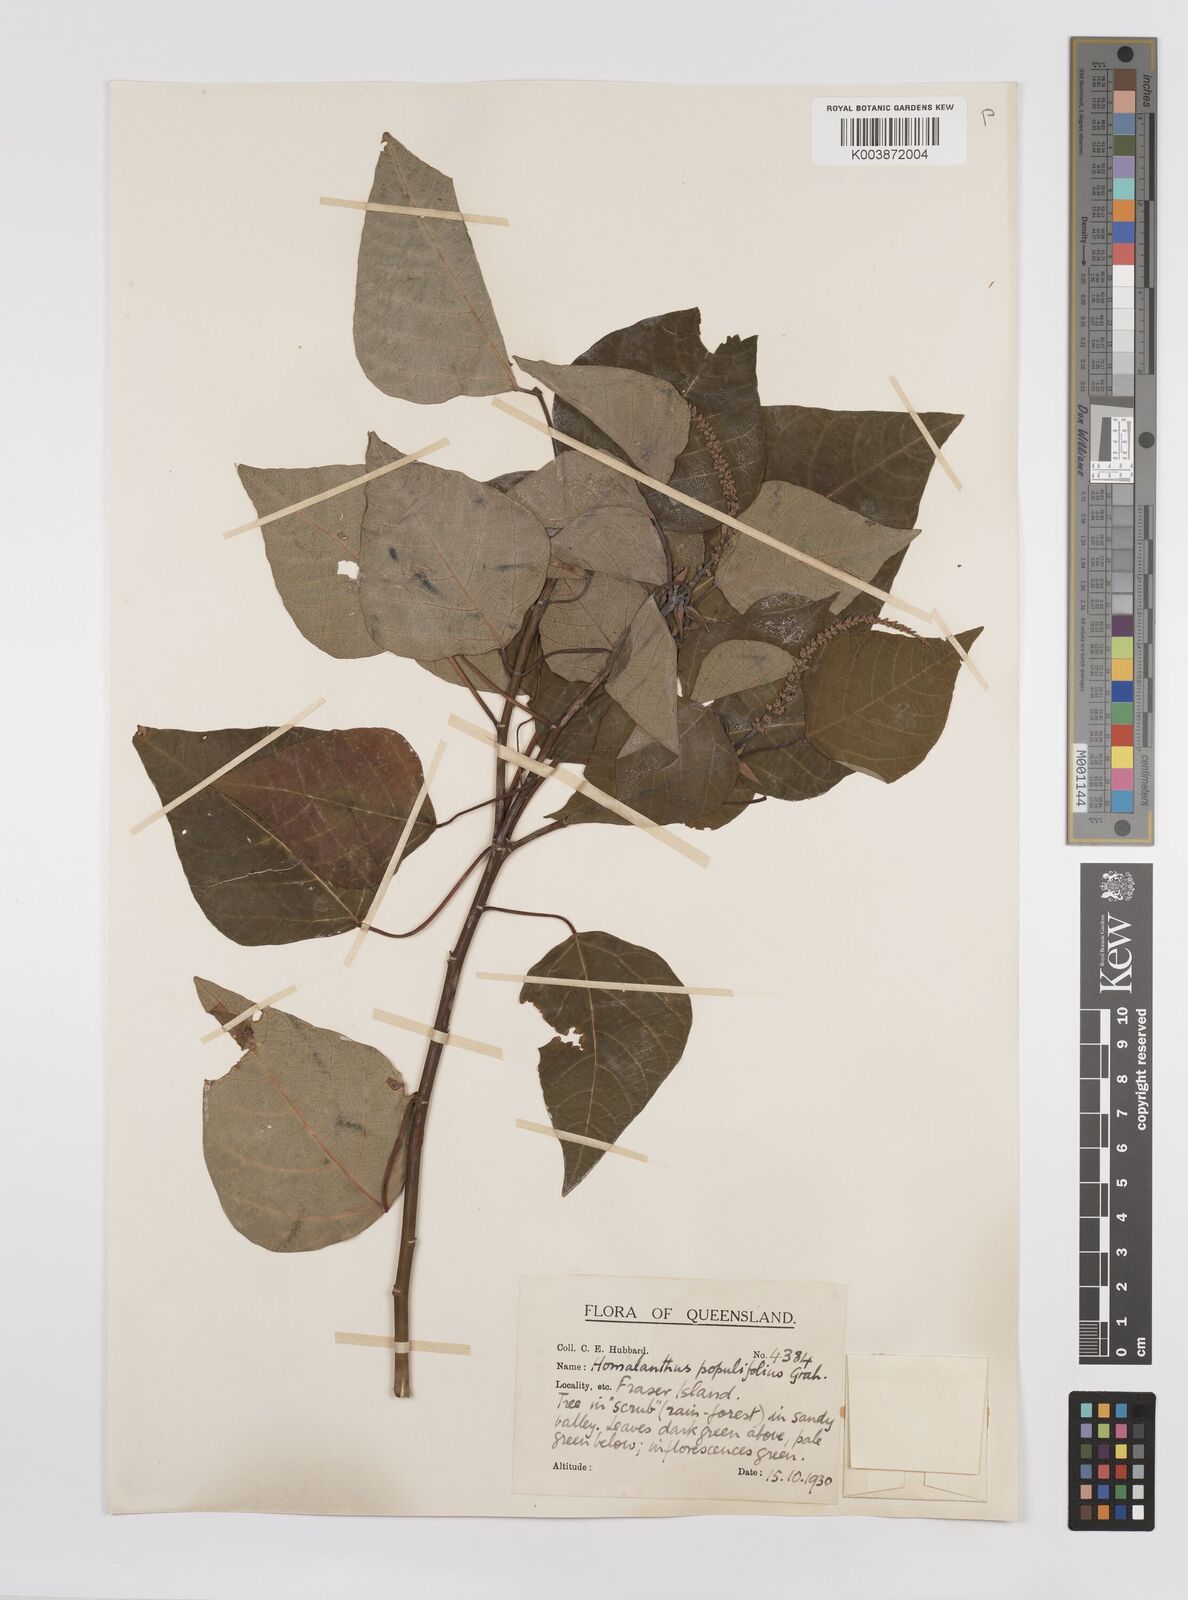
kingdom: Plantae
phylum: Tracheophyta
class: Magnoliopsida
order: Malpighiales
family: Euphorbiaceae
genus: Homalanthus
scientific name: Homalanthus populifolius
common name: Queensland poplar
